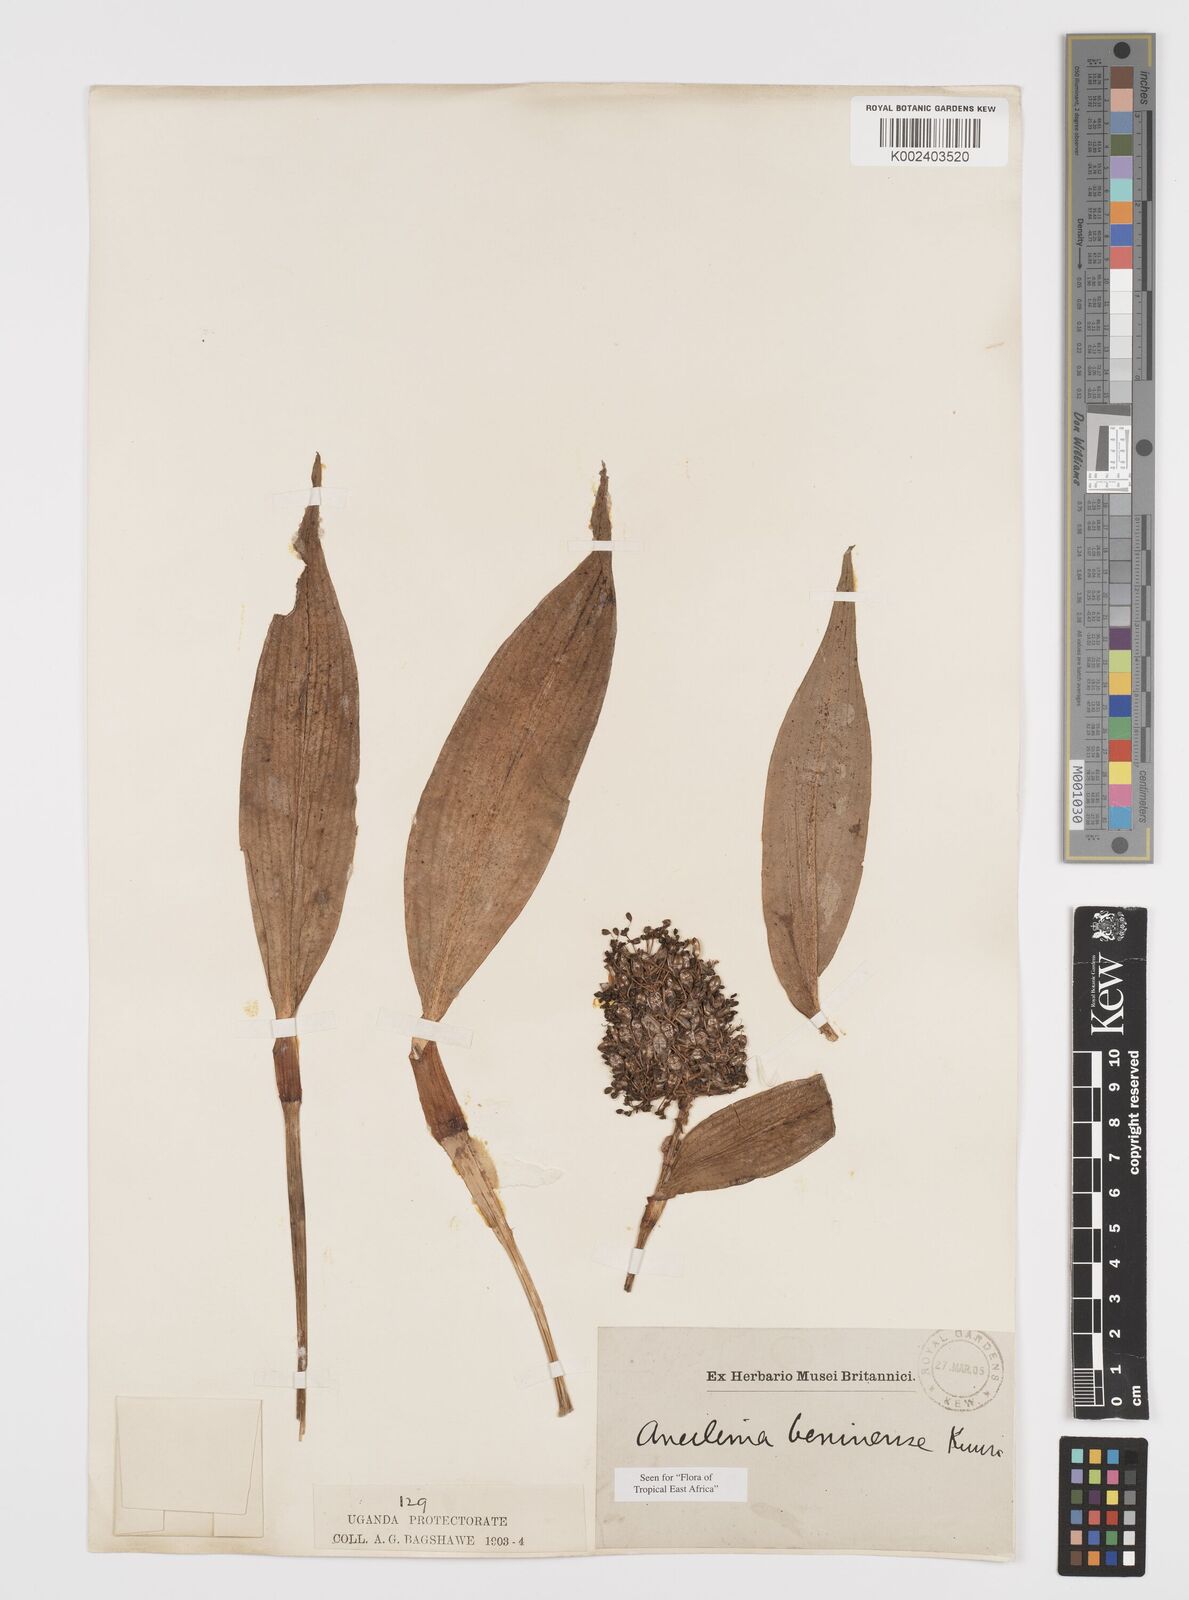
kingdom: Plantae
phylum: Tracheophyta
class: Liliopsida
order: Commelinales
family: Commelinaceae
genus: Aneilema
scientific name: Aneilema beniniense
